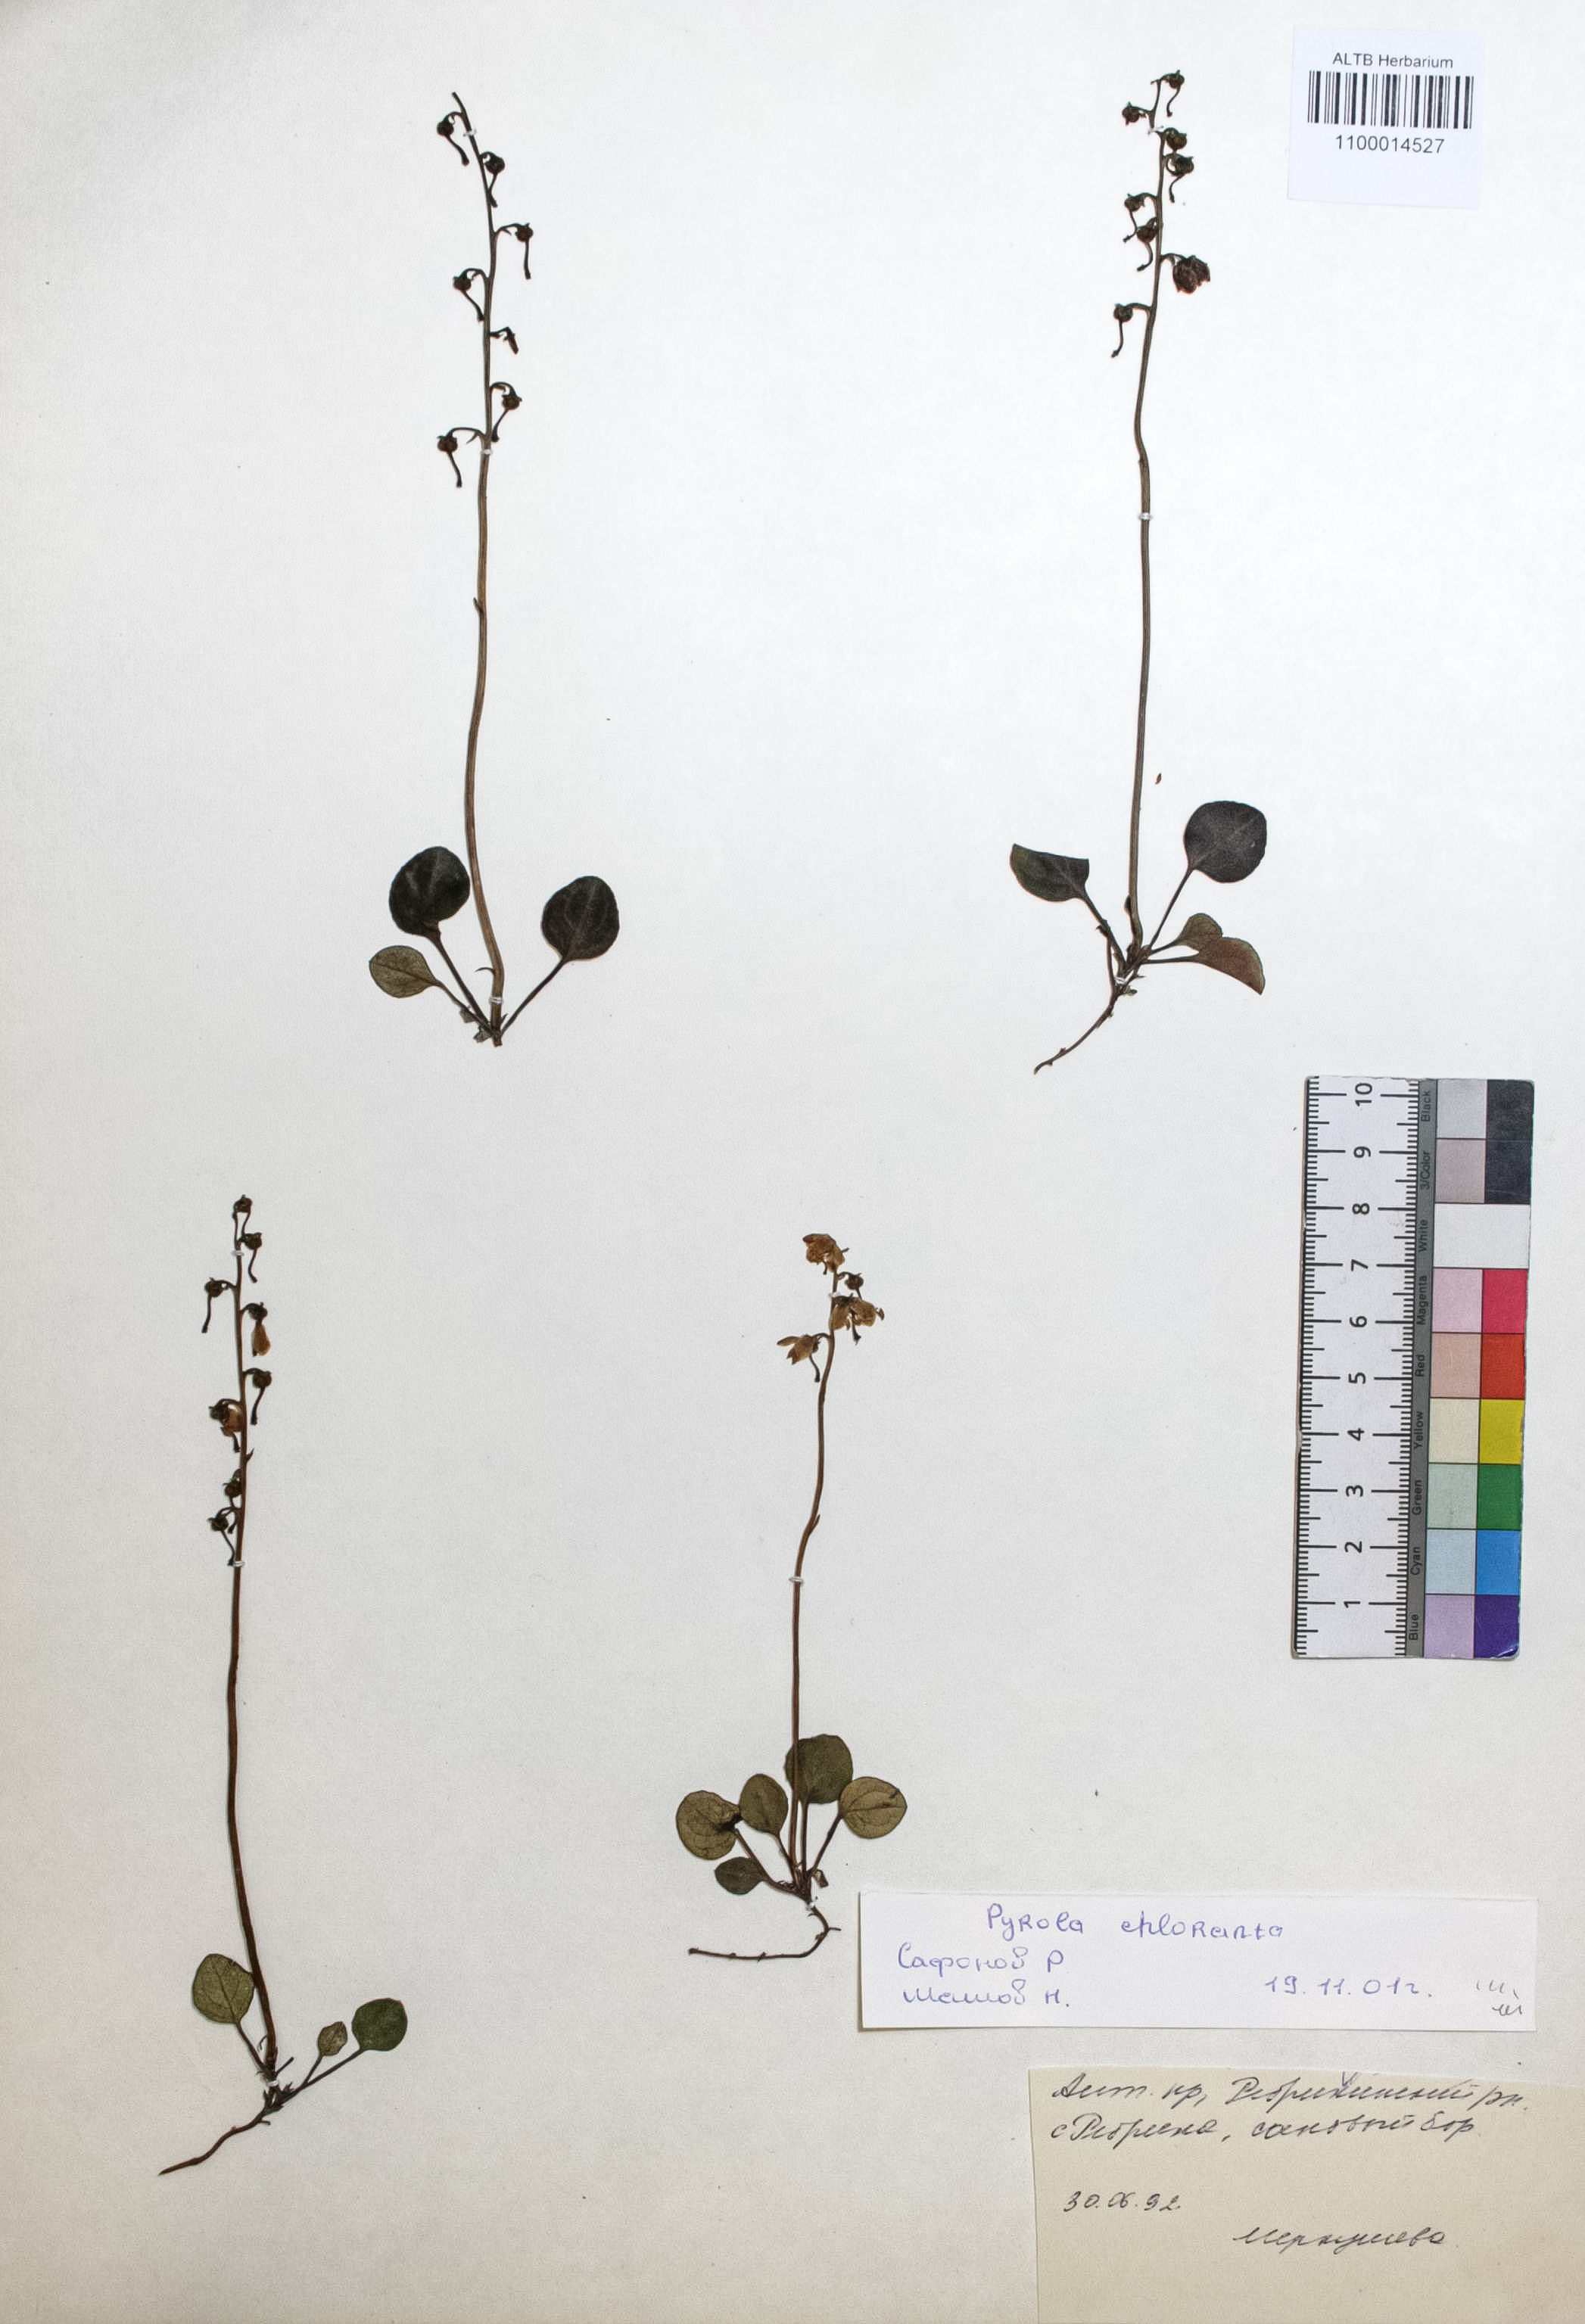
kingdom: Plantae
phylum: Tracheophyta
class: Magnoliopsida
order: Ericales
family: Ericaceae
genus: Pyrola
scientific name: Pyrola chlorantha
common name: Green wintergreen
